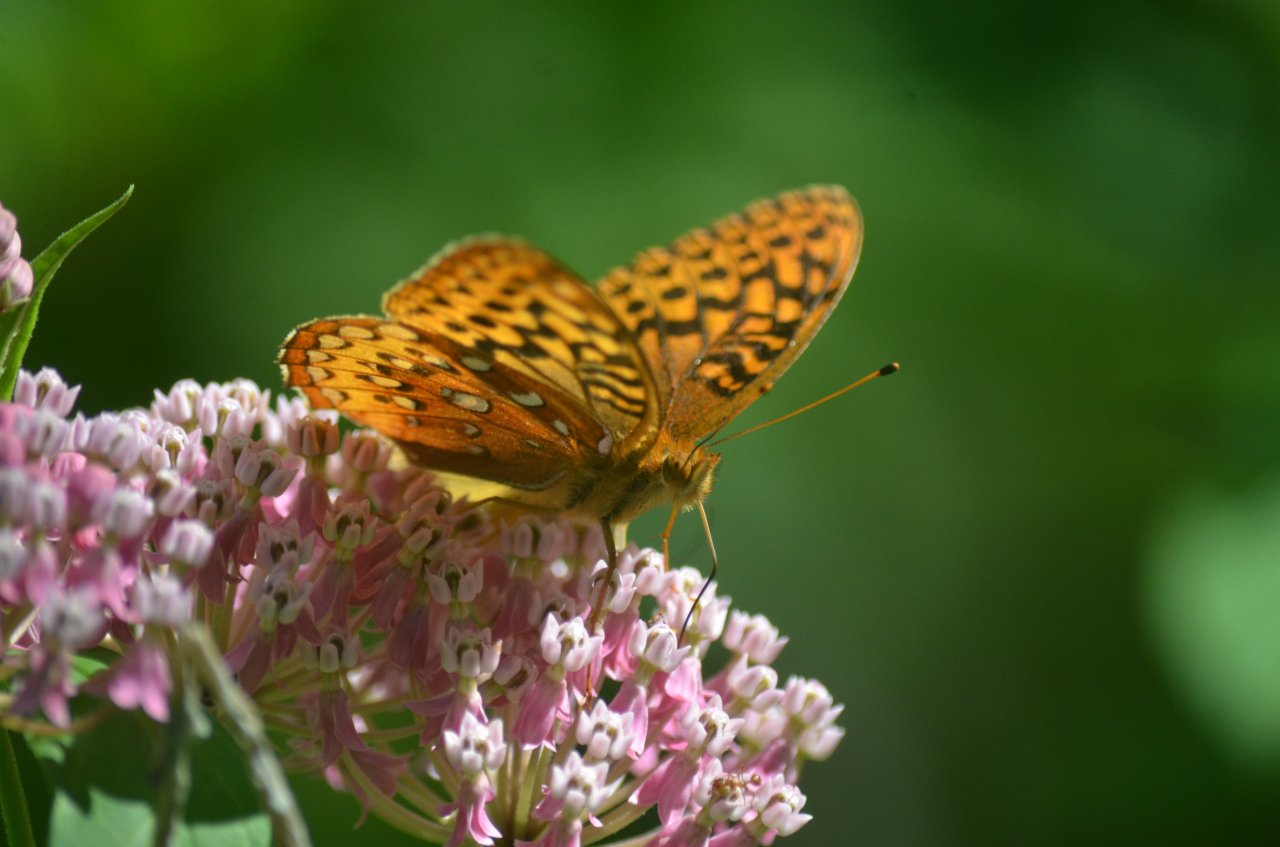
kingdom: Animalia
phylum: Arthropoda
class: Insecta
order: Lepidoptera
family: Nymphalidae
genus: Speyeria
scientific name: Speyeria cybele
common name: Great Spangled Fritillary
